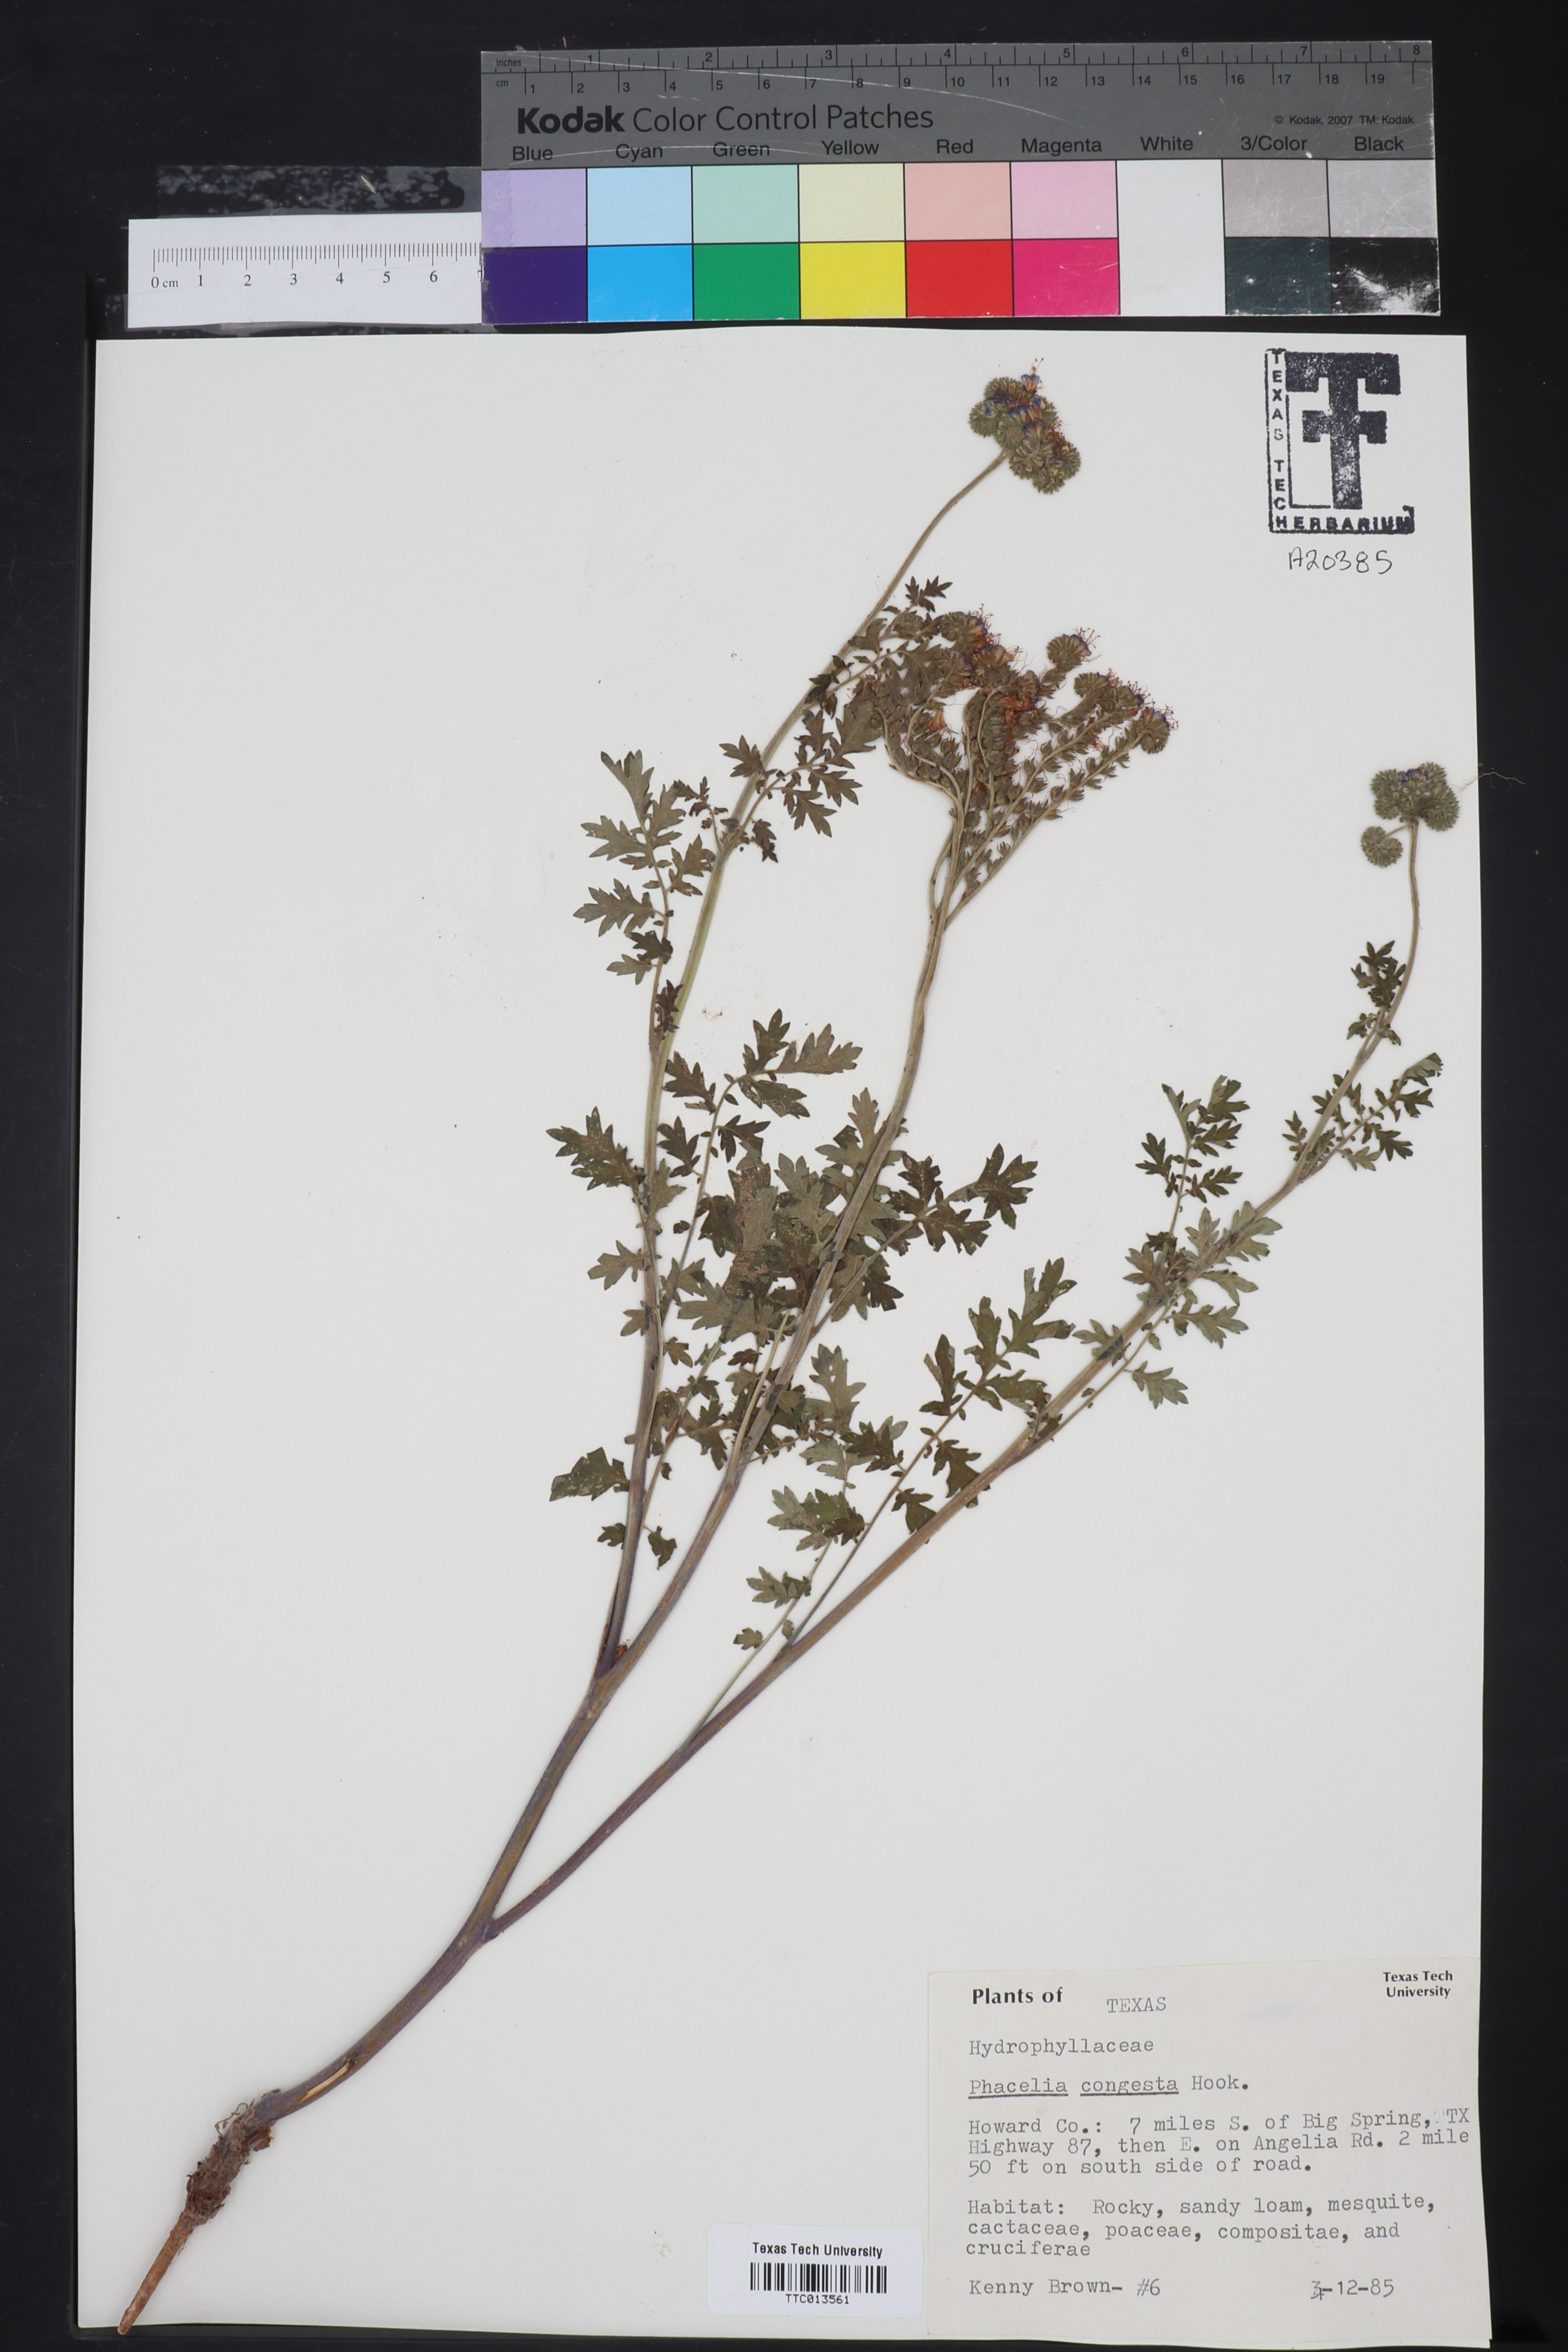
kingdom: Plantae
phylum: Tracheophyta
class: Magnoliopsida
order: Boraginales
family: Hydrophyllaceae
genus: Phacelia
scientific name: Phacelia congesta
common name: Blue curls
